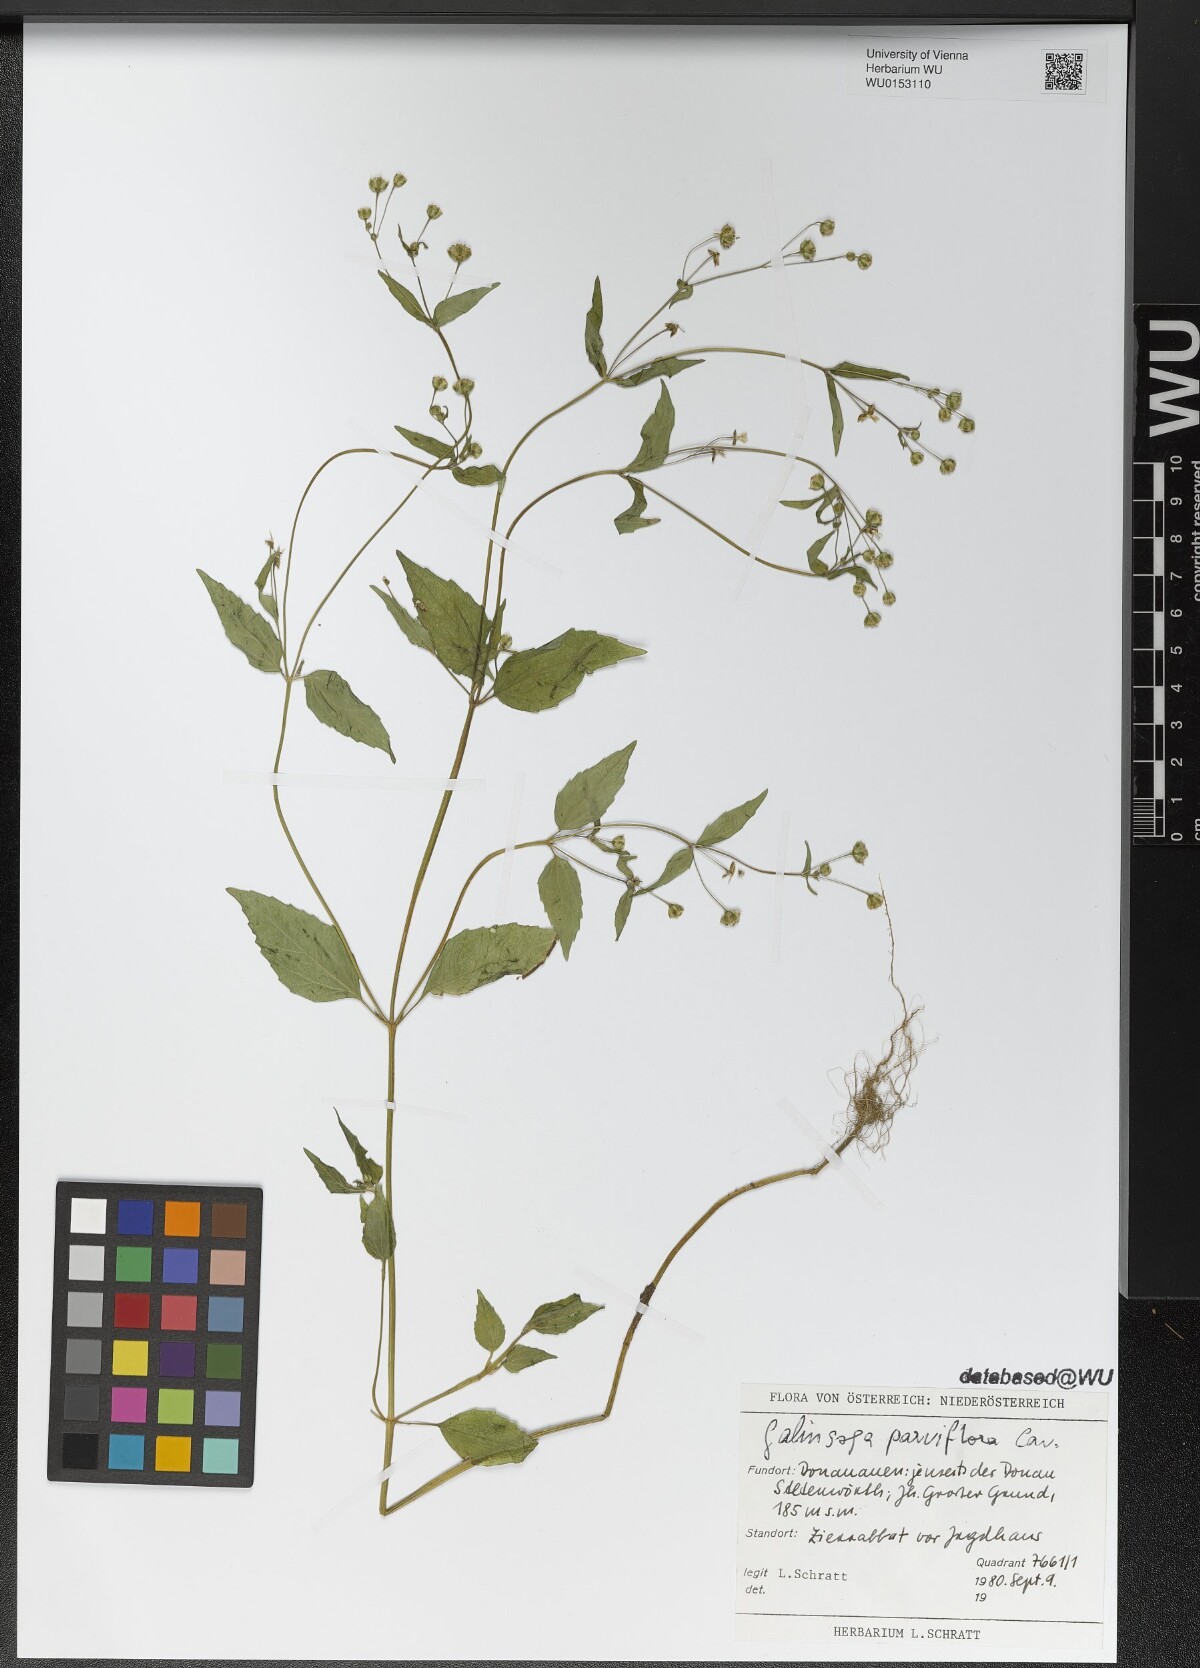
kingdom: Plantae
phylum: Tracheophyta
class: Magnoliopsida
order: Asterales
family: Asteraceae
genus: Galinsoga
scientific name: Galinsoga parviflora
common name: Gallant soldier
